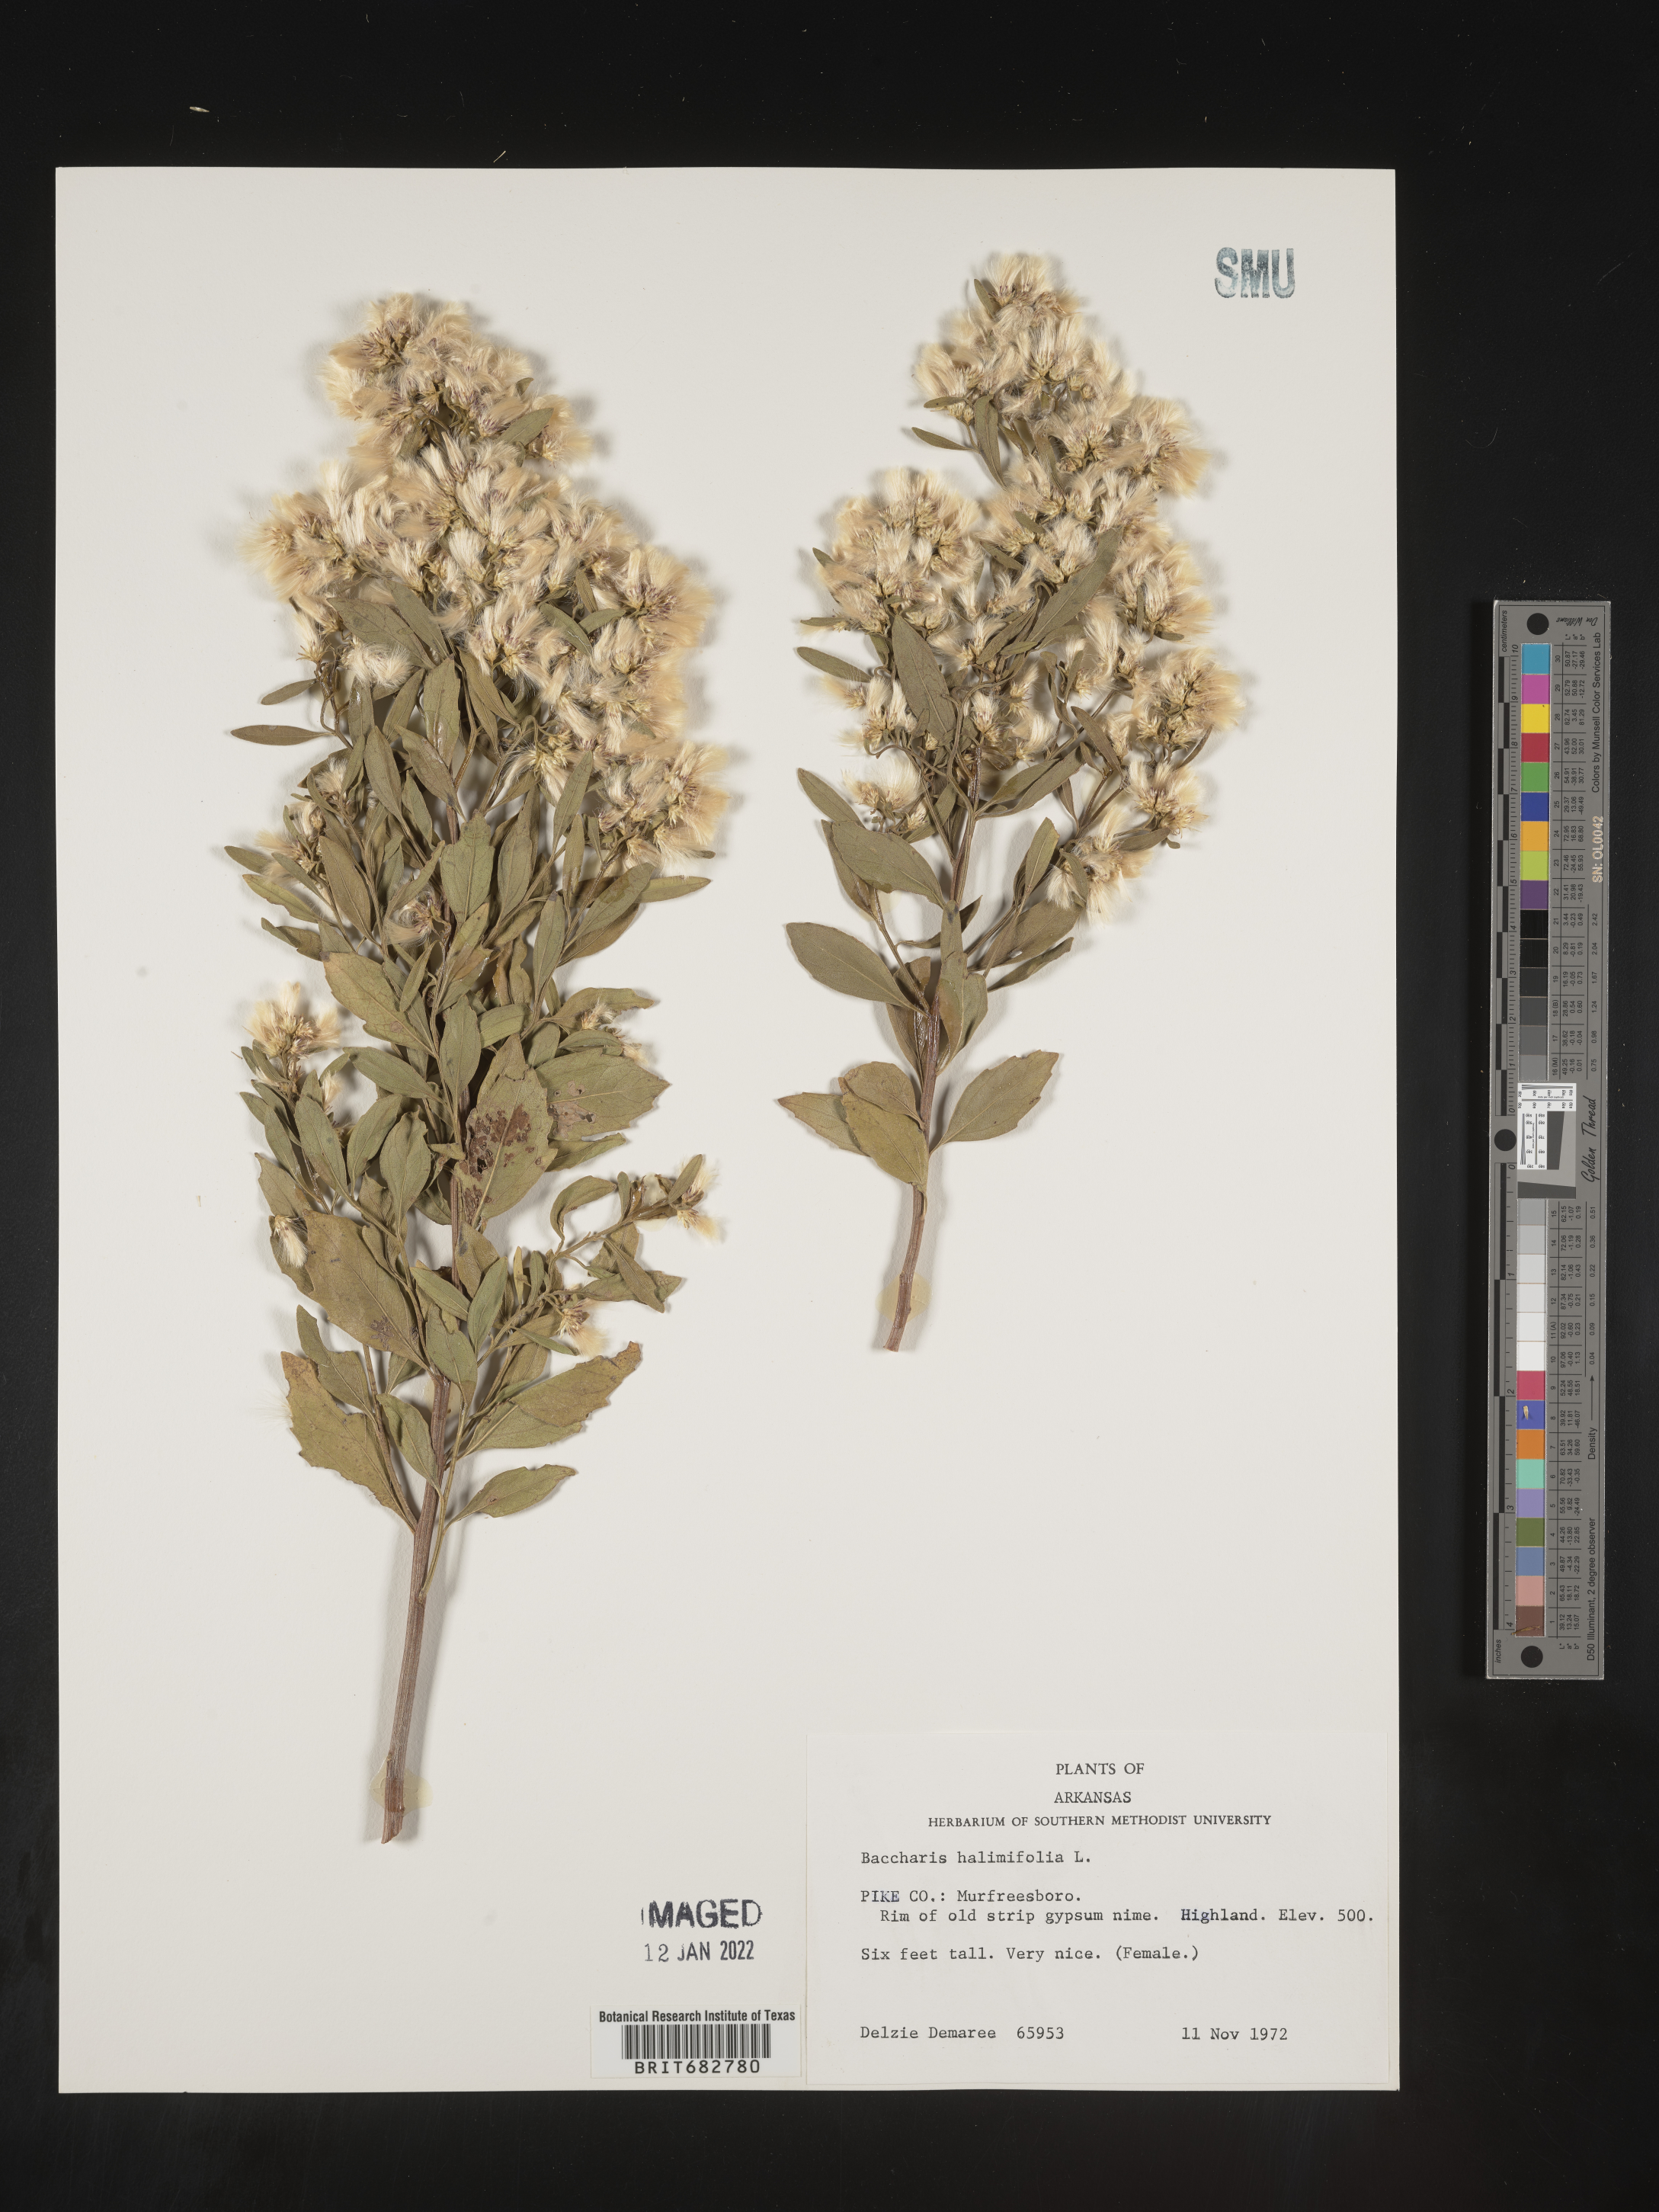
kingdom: Plantae
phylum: Tracheophyta
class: Magnoliopsida
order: Asterales
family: Asteraceae
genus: Nidorella
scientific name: Nidorella ivifolia
